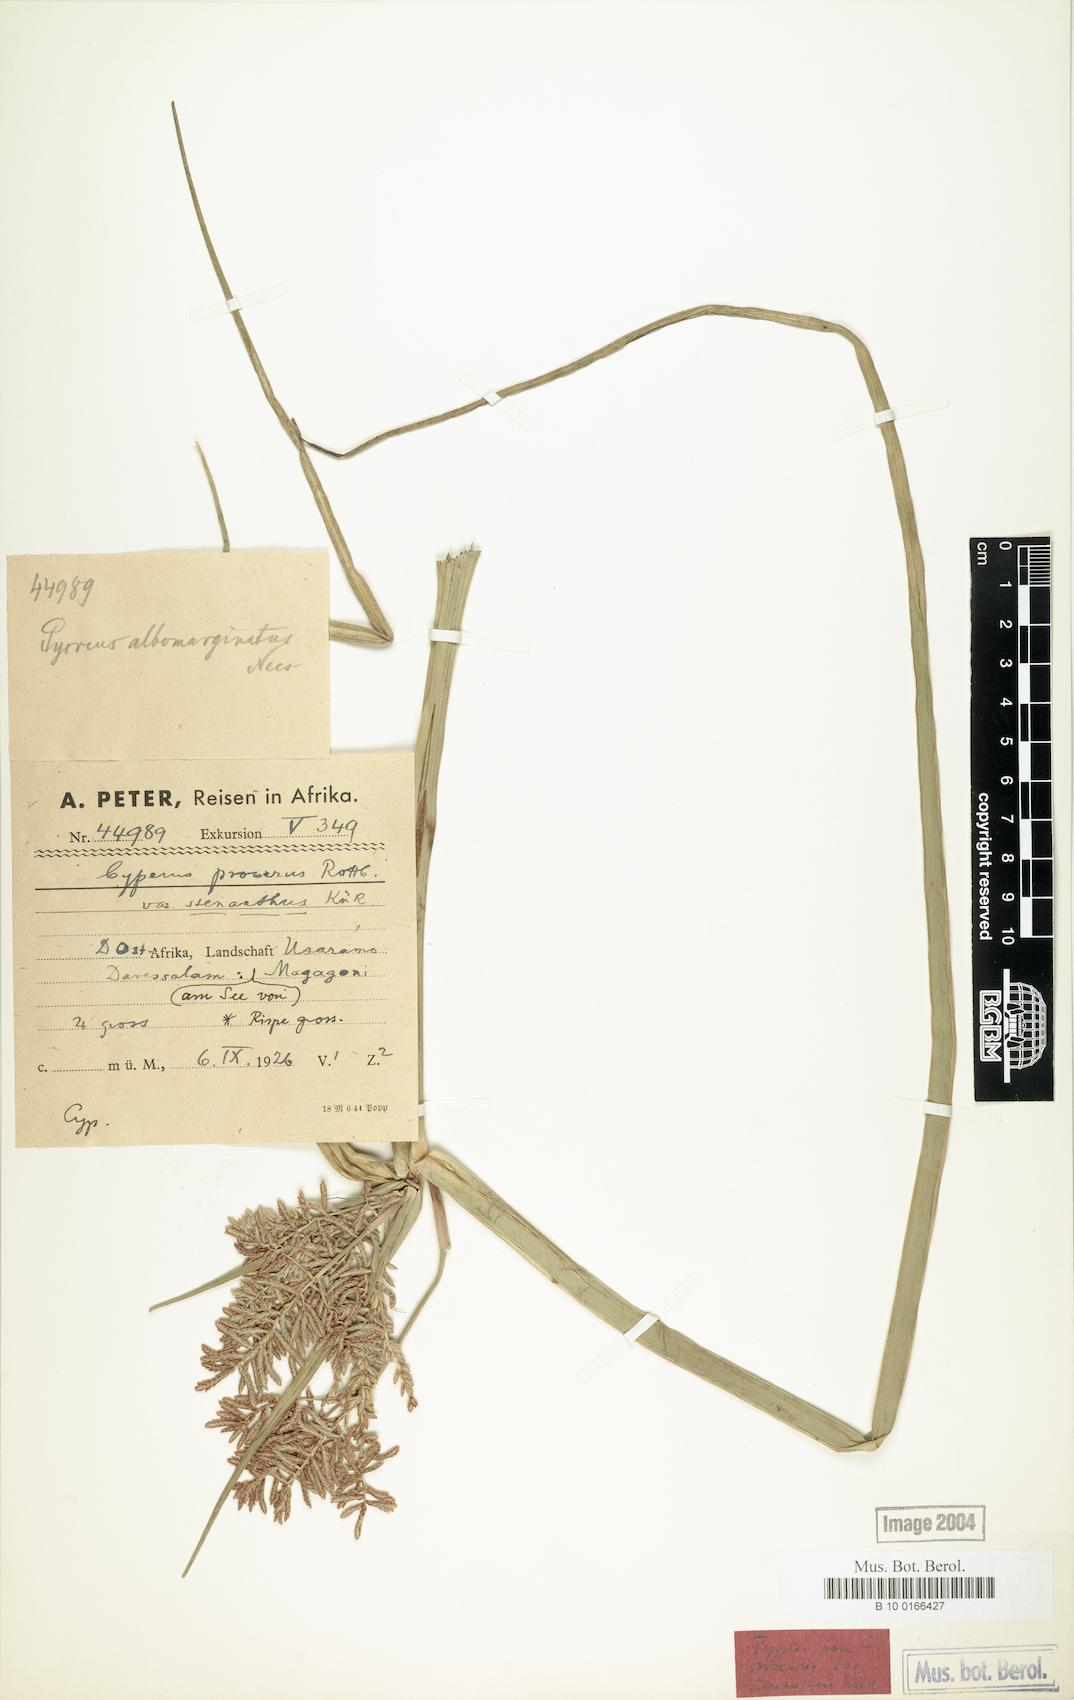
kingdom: Plantae
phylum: Tracheophyta
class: Liliopsida
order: Poales
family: Cyperaceae
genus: Cyperus
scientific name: Cyperus procerus
